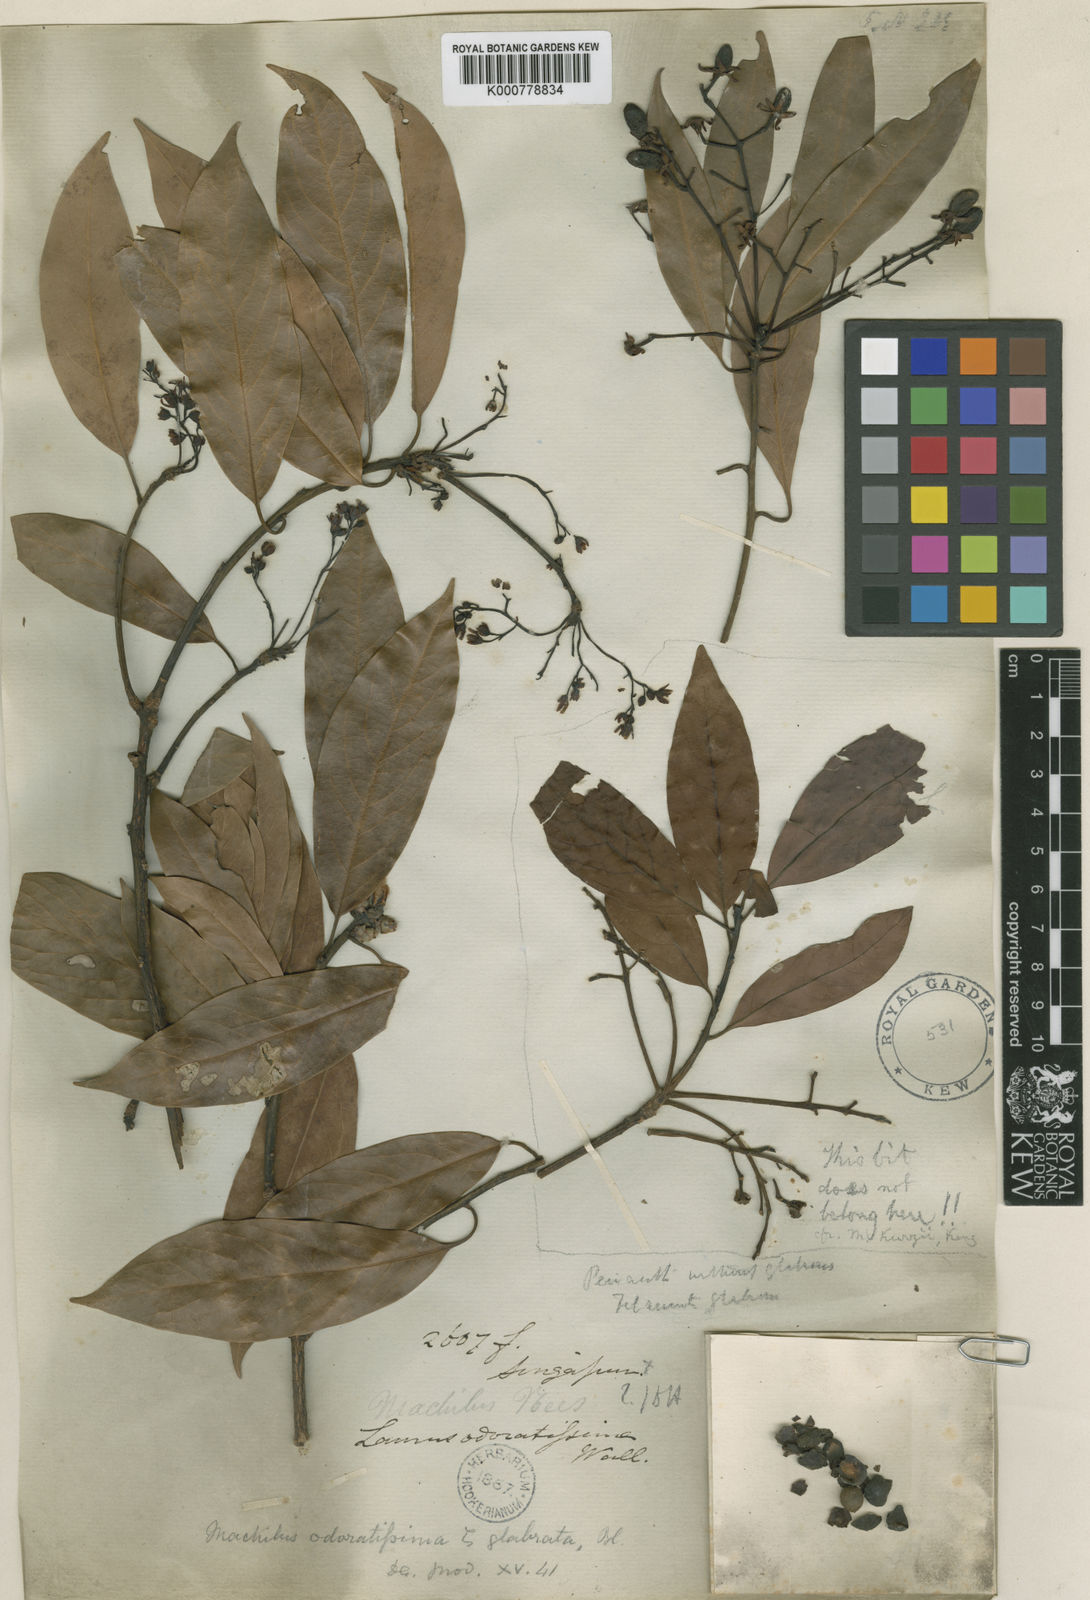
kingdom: Plantae
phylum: Tracheophyta
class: Magnoliopsida
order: Laurales
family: Lauraceae
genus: Machilus
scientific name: Machilus odoratissimus
